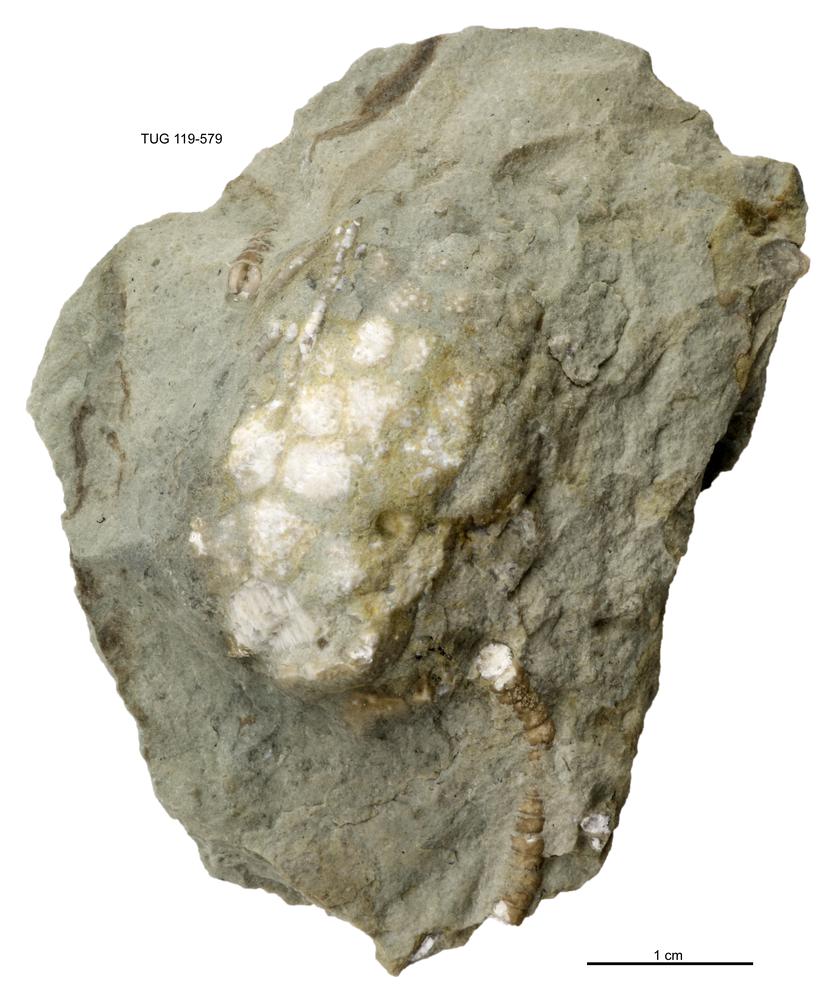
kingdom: Animalia
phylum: Echinodermata
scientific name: Echinodermata
